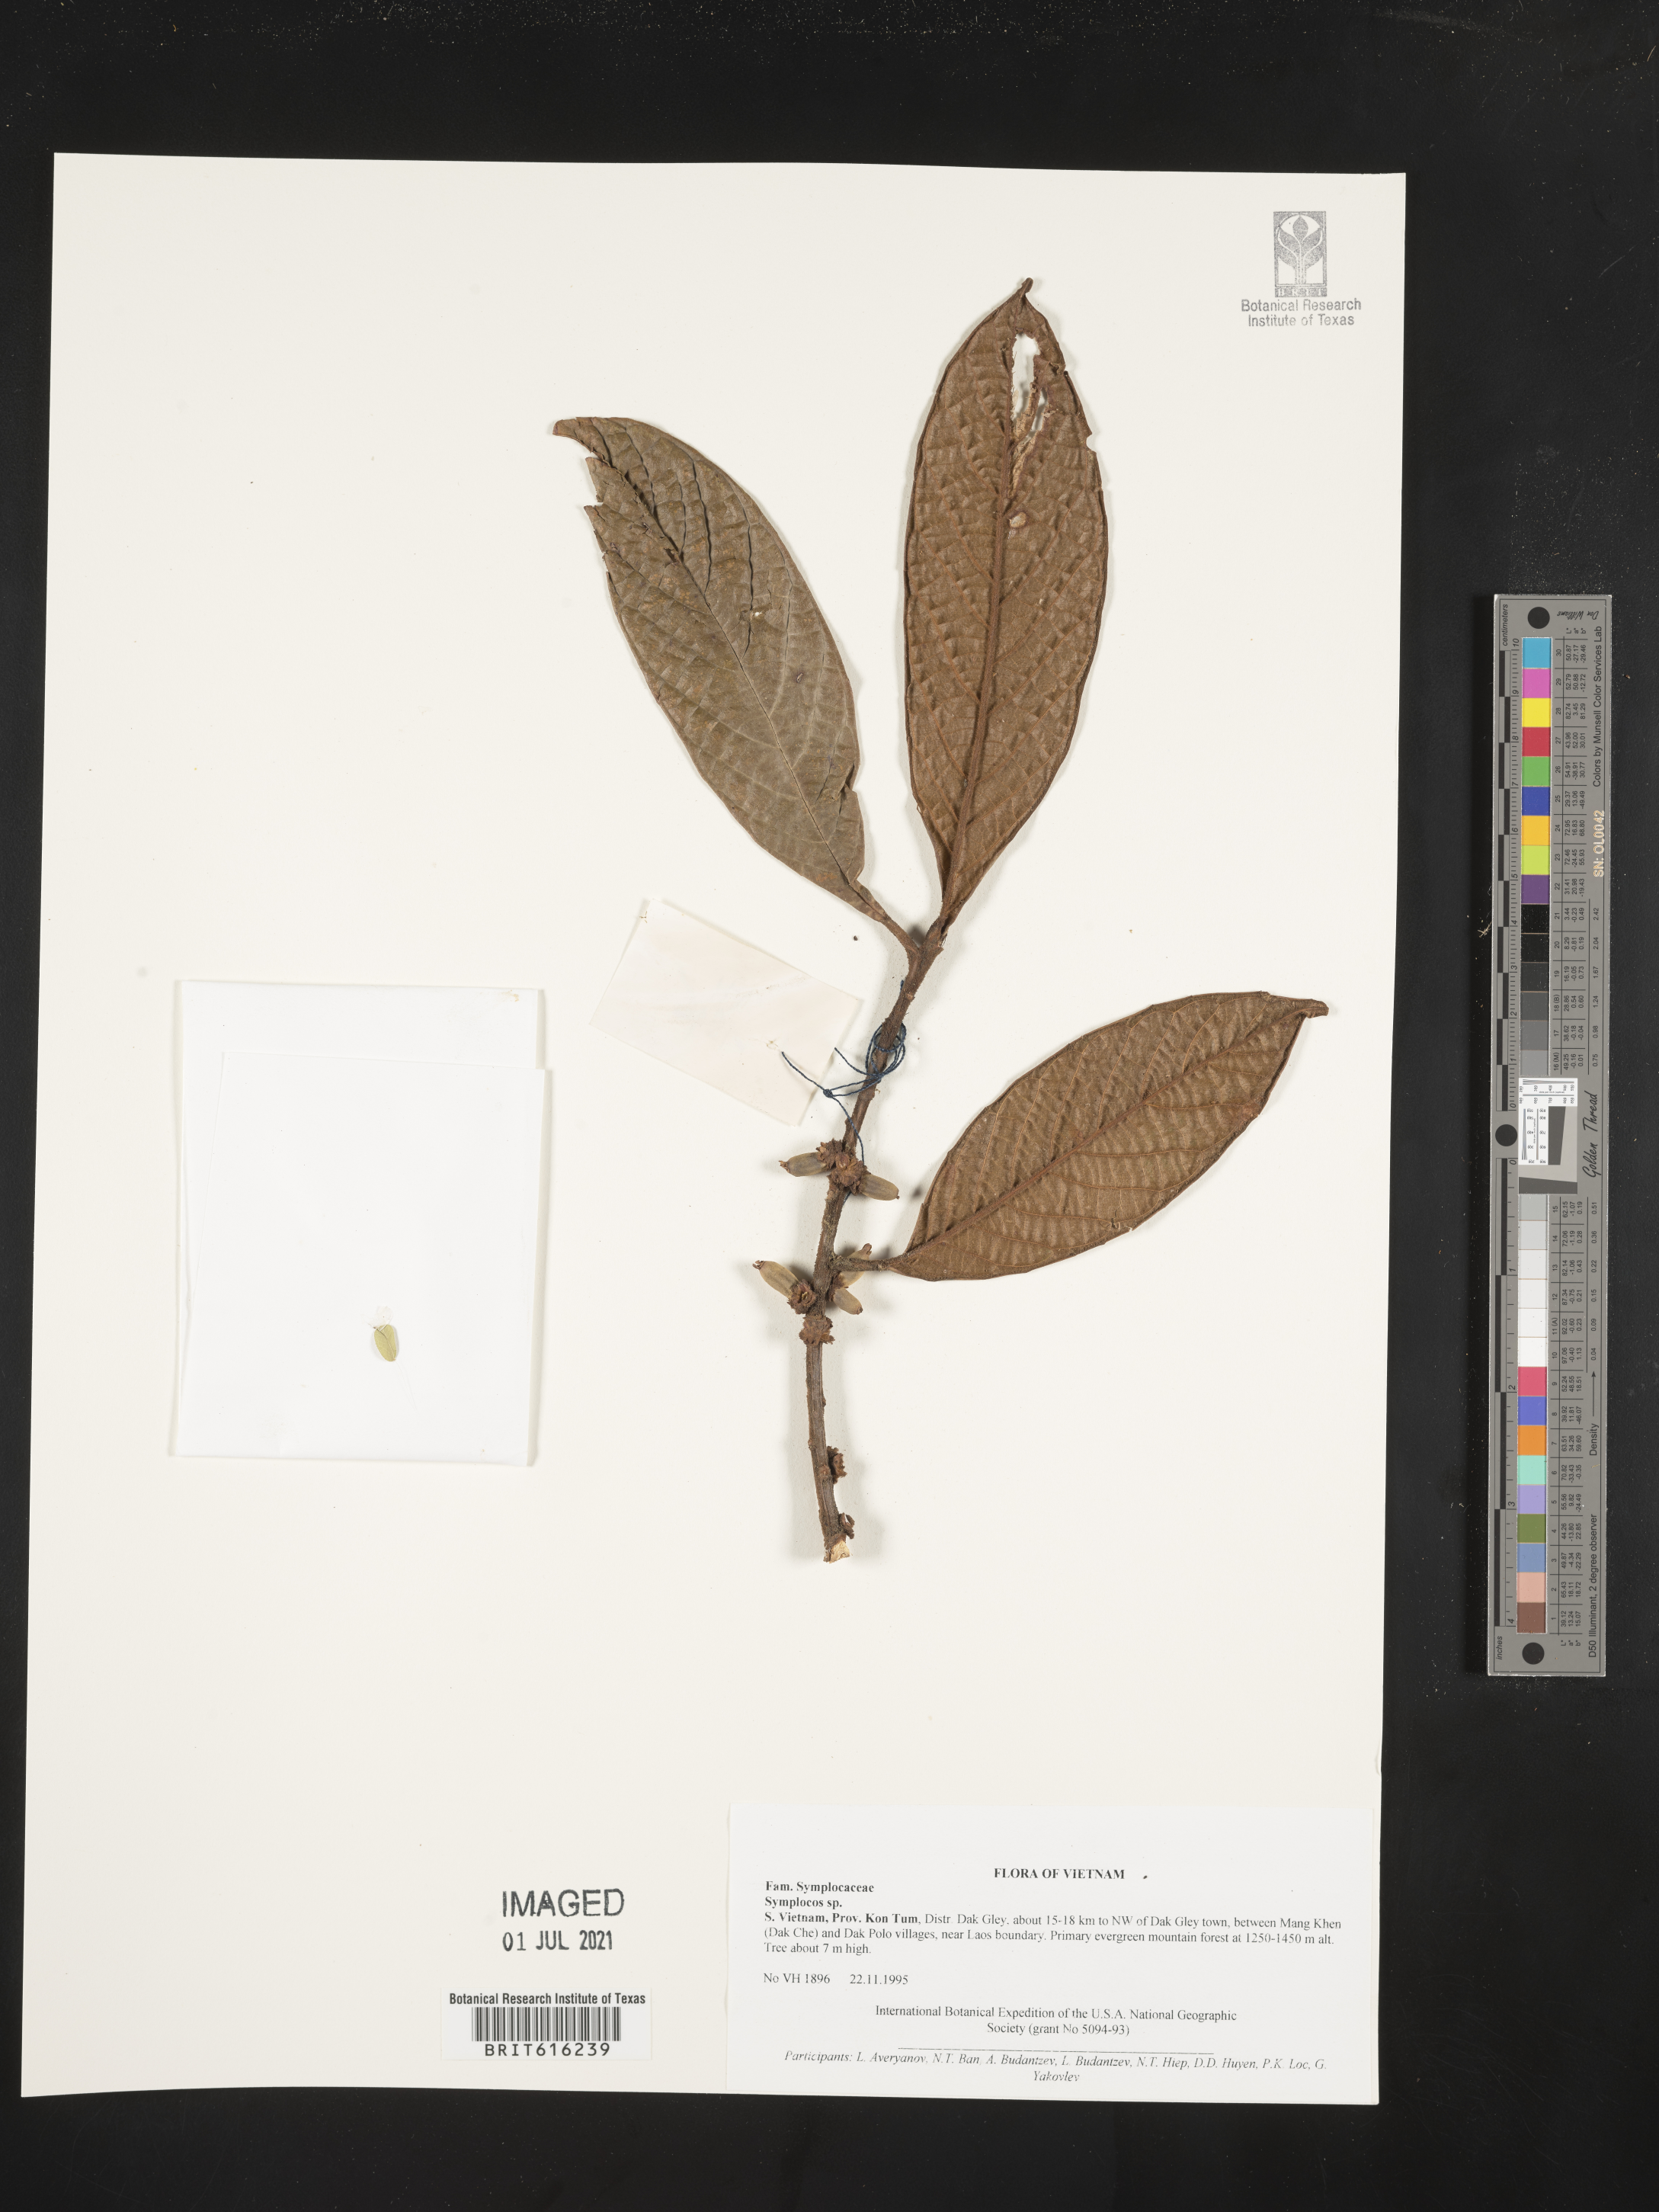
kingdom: Plantae
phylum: Tracheophyta
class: Magnoliopsida
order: Ericales
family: Symplocaceae
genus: Symplocos
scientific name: Symplocos
